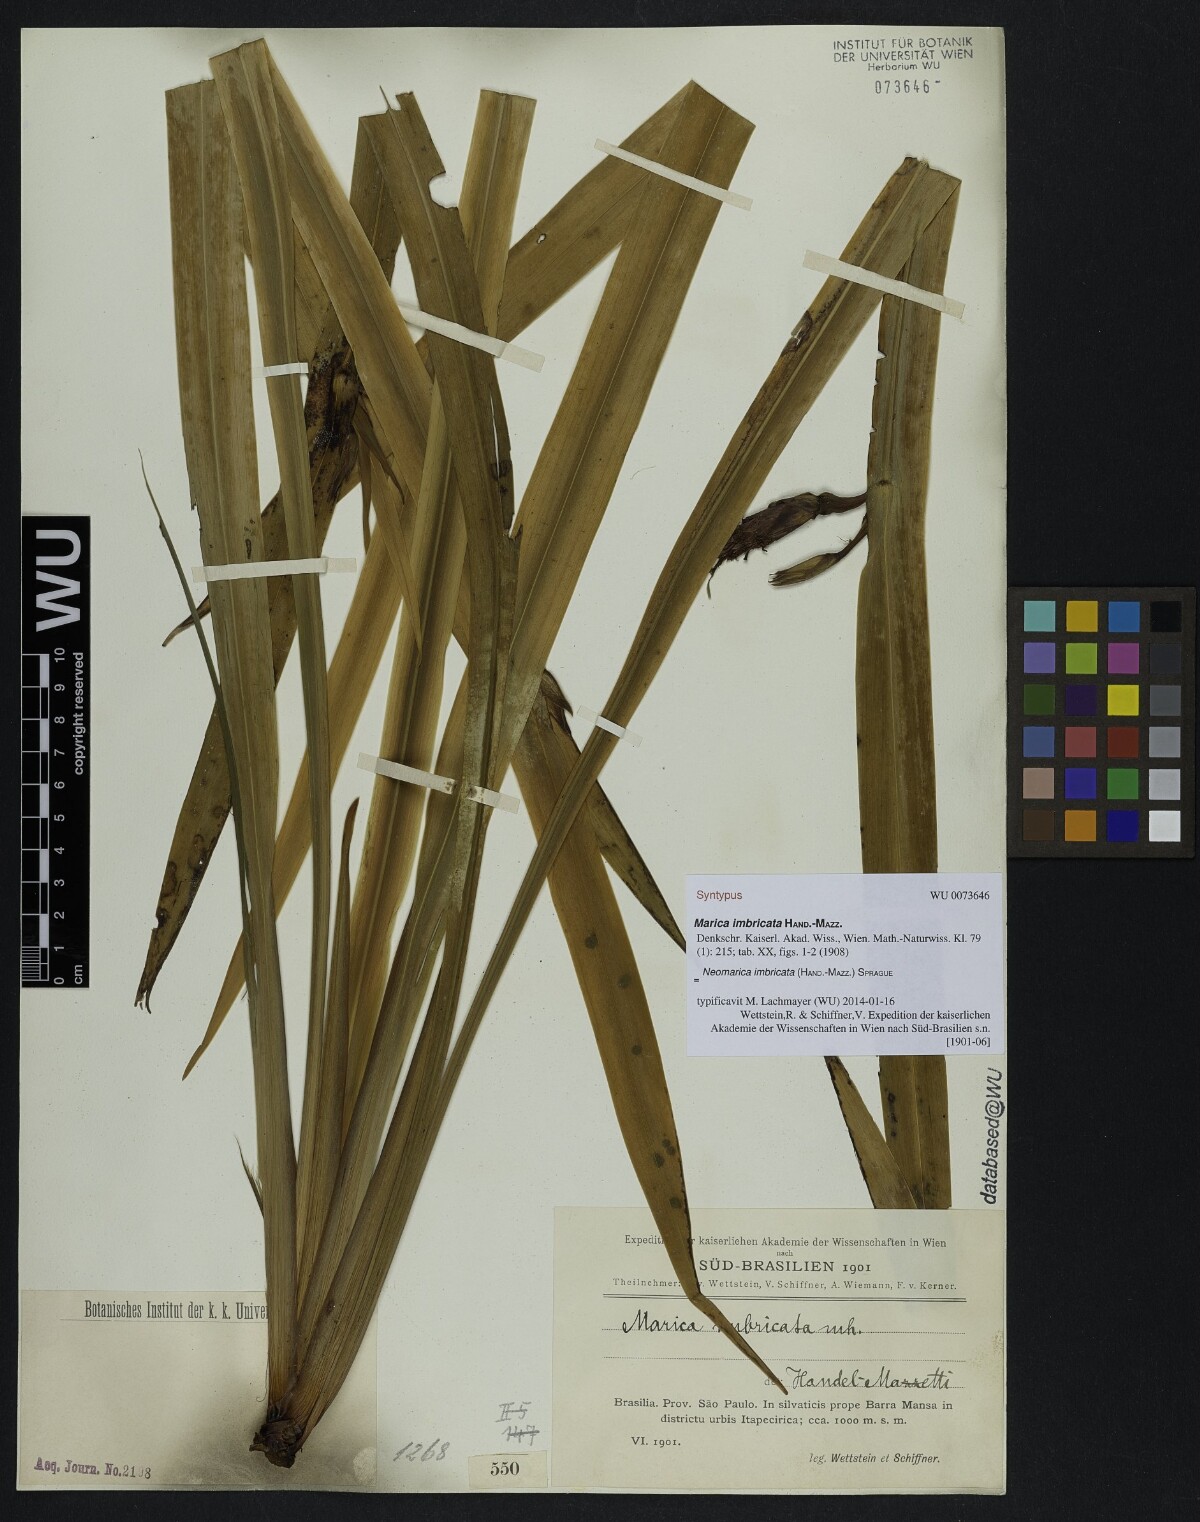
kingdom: Plantae
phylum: Tracheophyta
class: Liliopsida
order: Asparagales
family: Iridaceae
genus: Trimezia
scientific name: Trimezia imbricata
